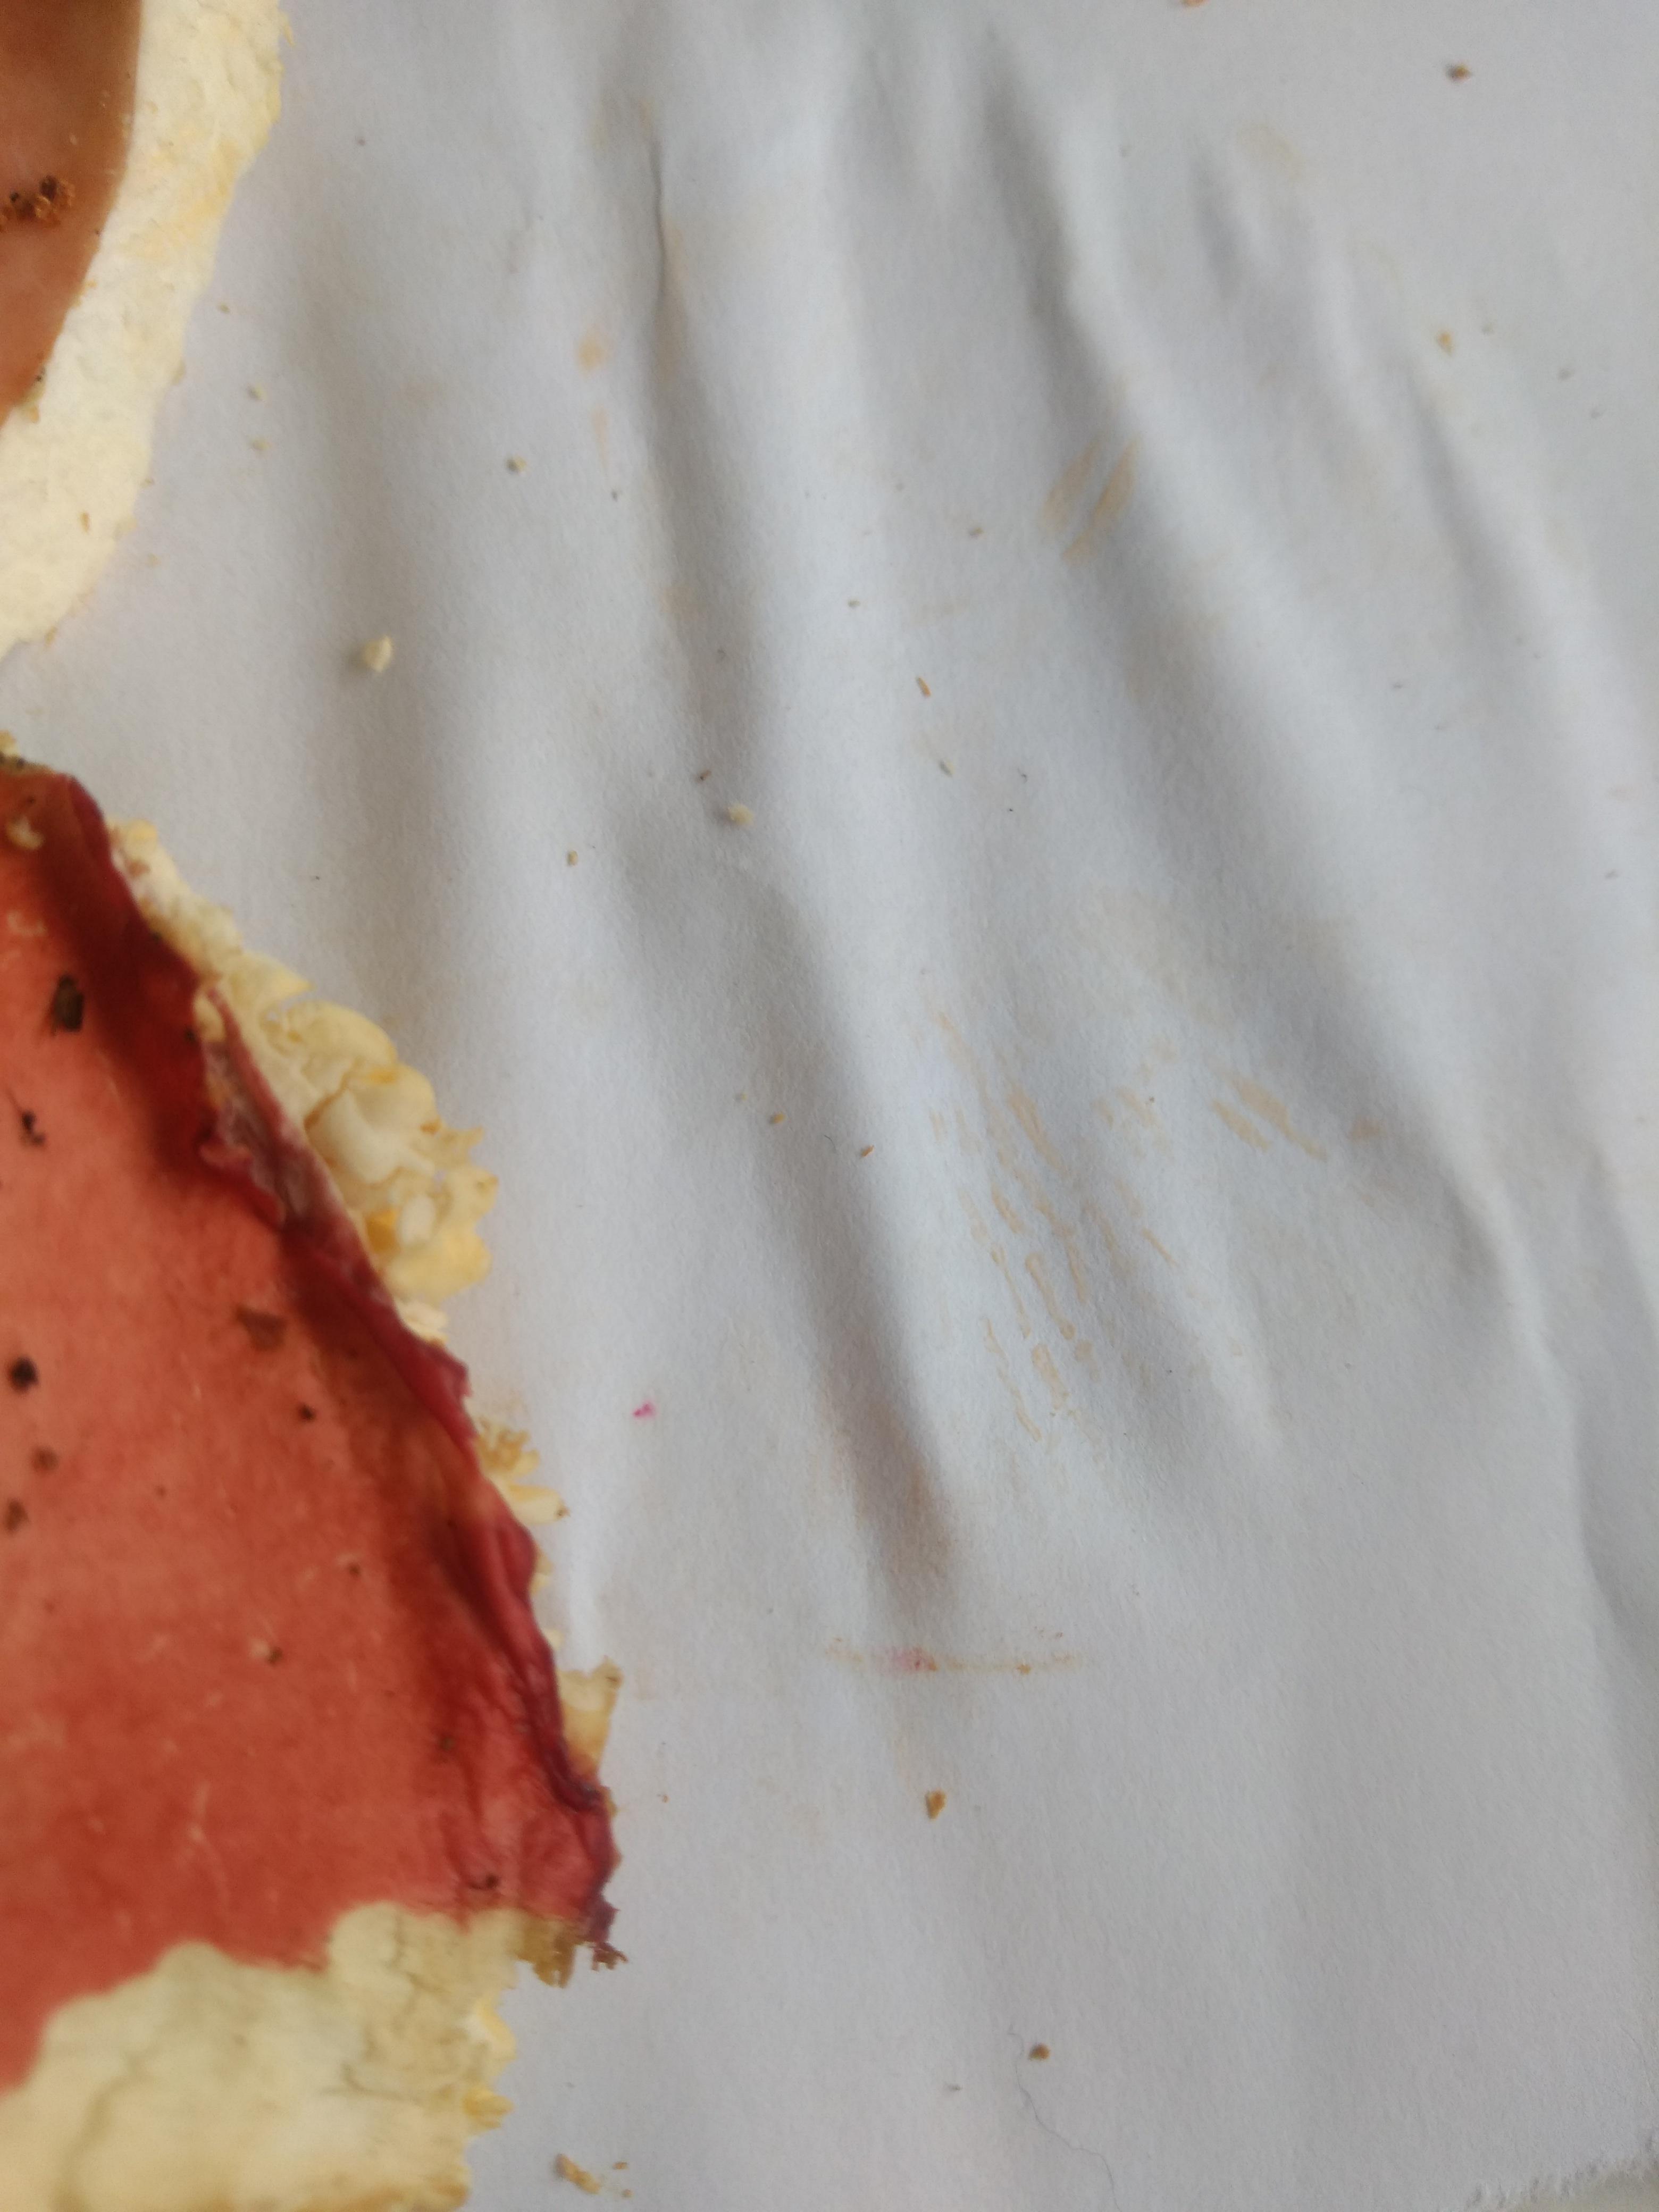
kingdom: Fungi
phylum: Basidiomycota
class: Agaricomycetes
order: Russulales
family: Russulaceae
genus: Russula
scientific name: Russula
